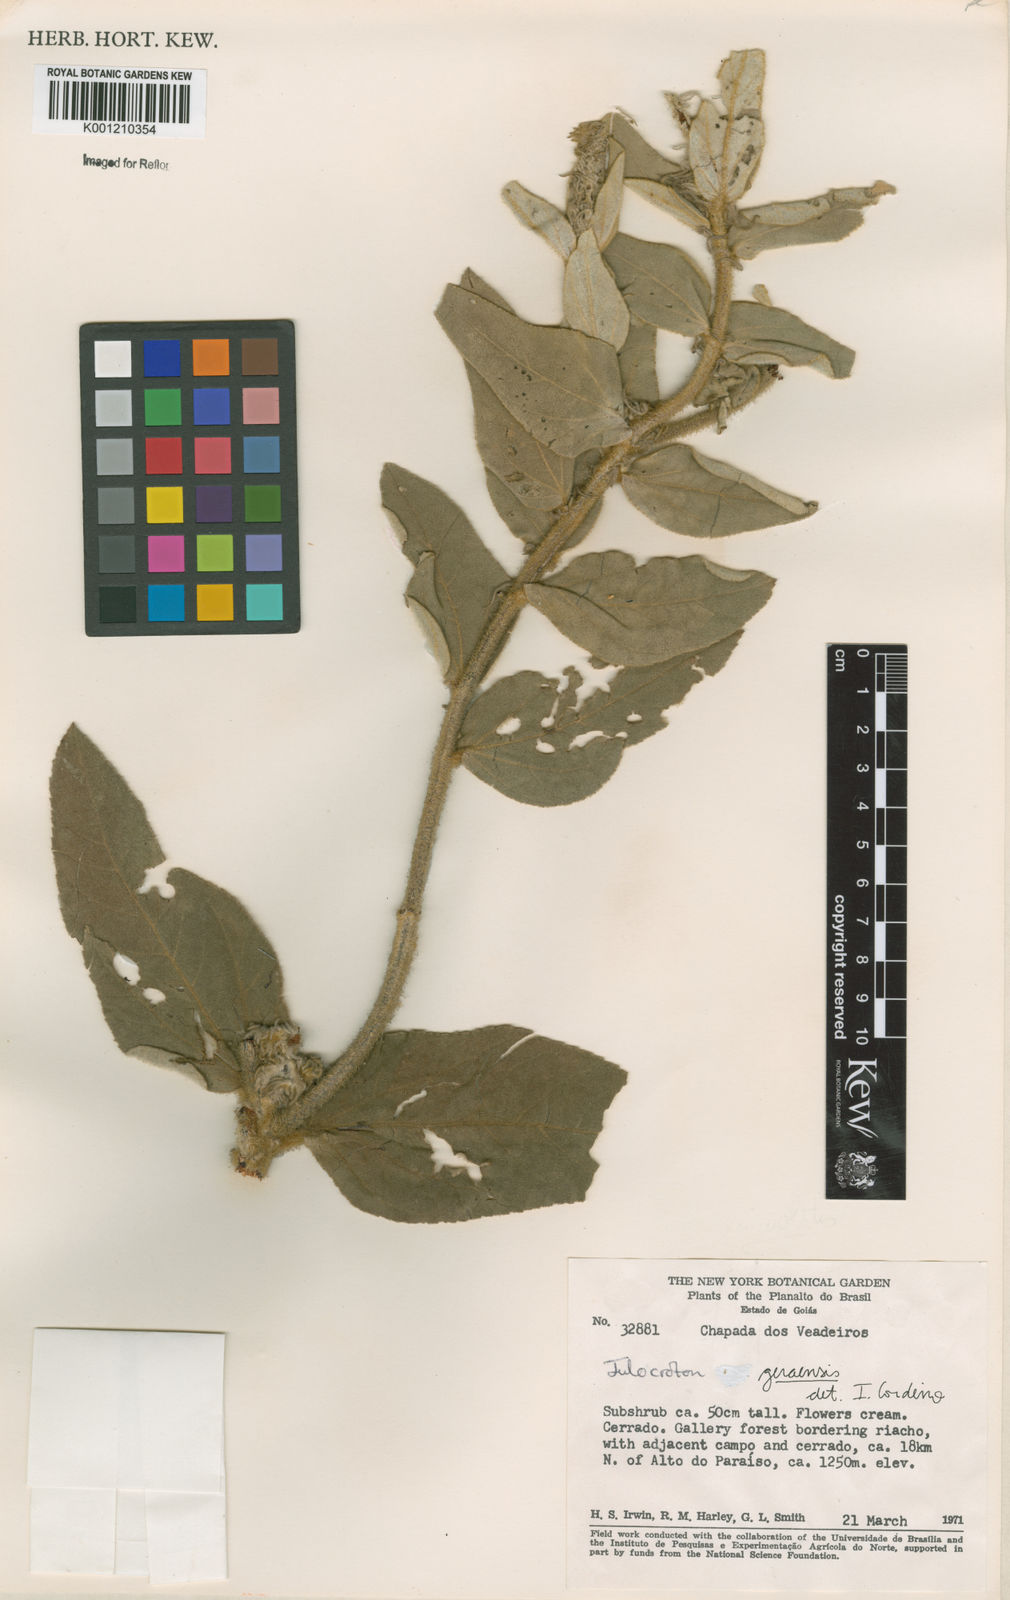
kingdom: Plantae
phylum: Tracheophyta
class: Magnoliopsida
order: Malpighiales
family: Euphorbiaceae
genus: Croton
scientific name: Croton
